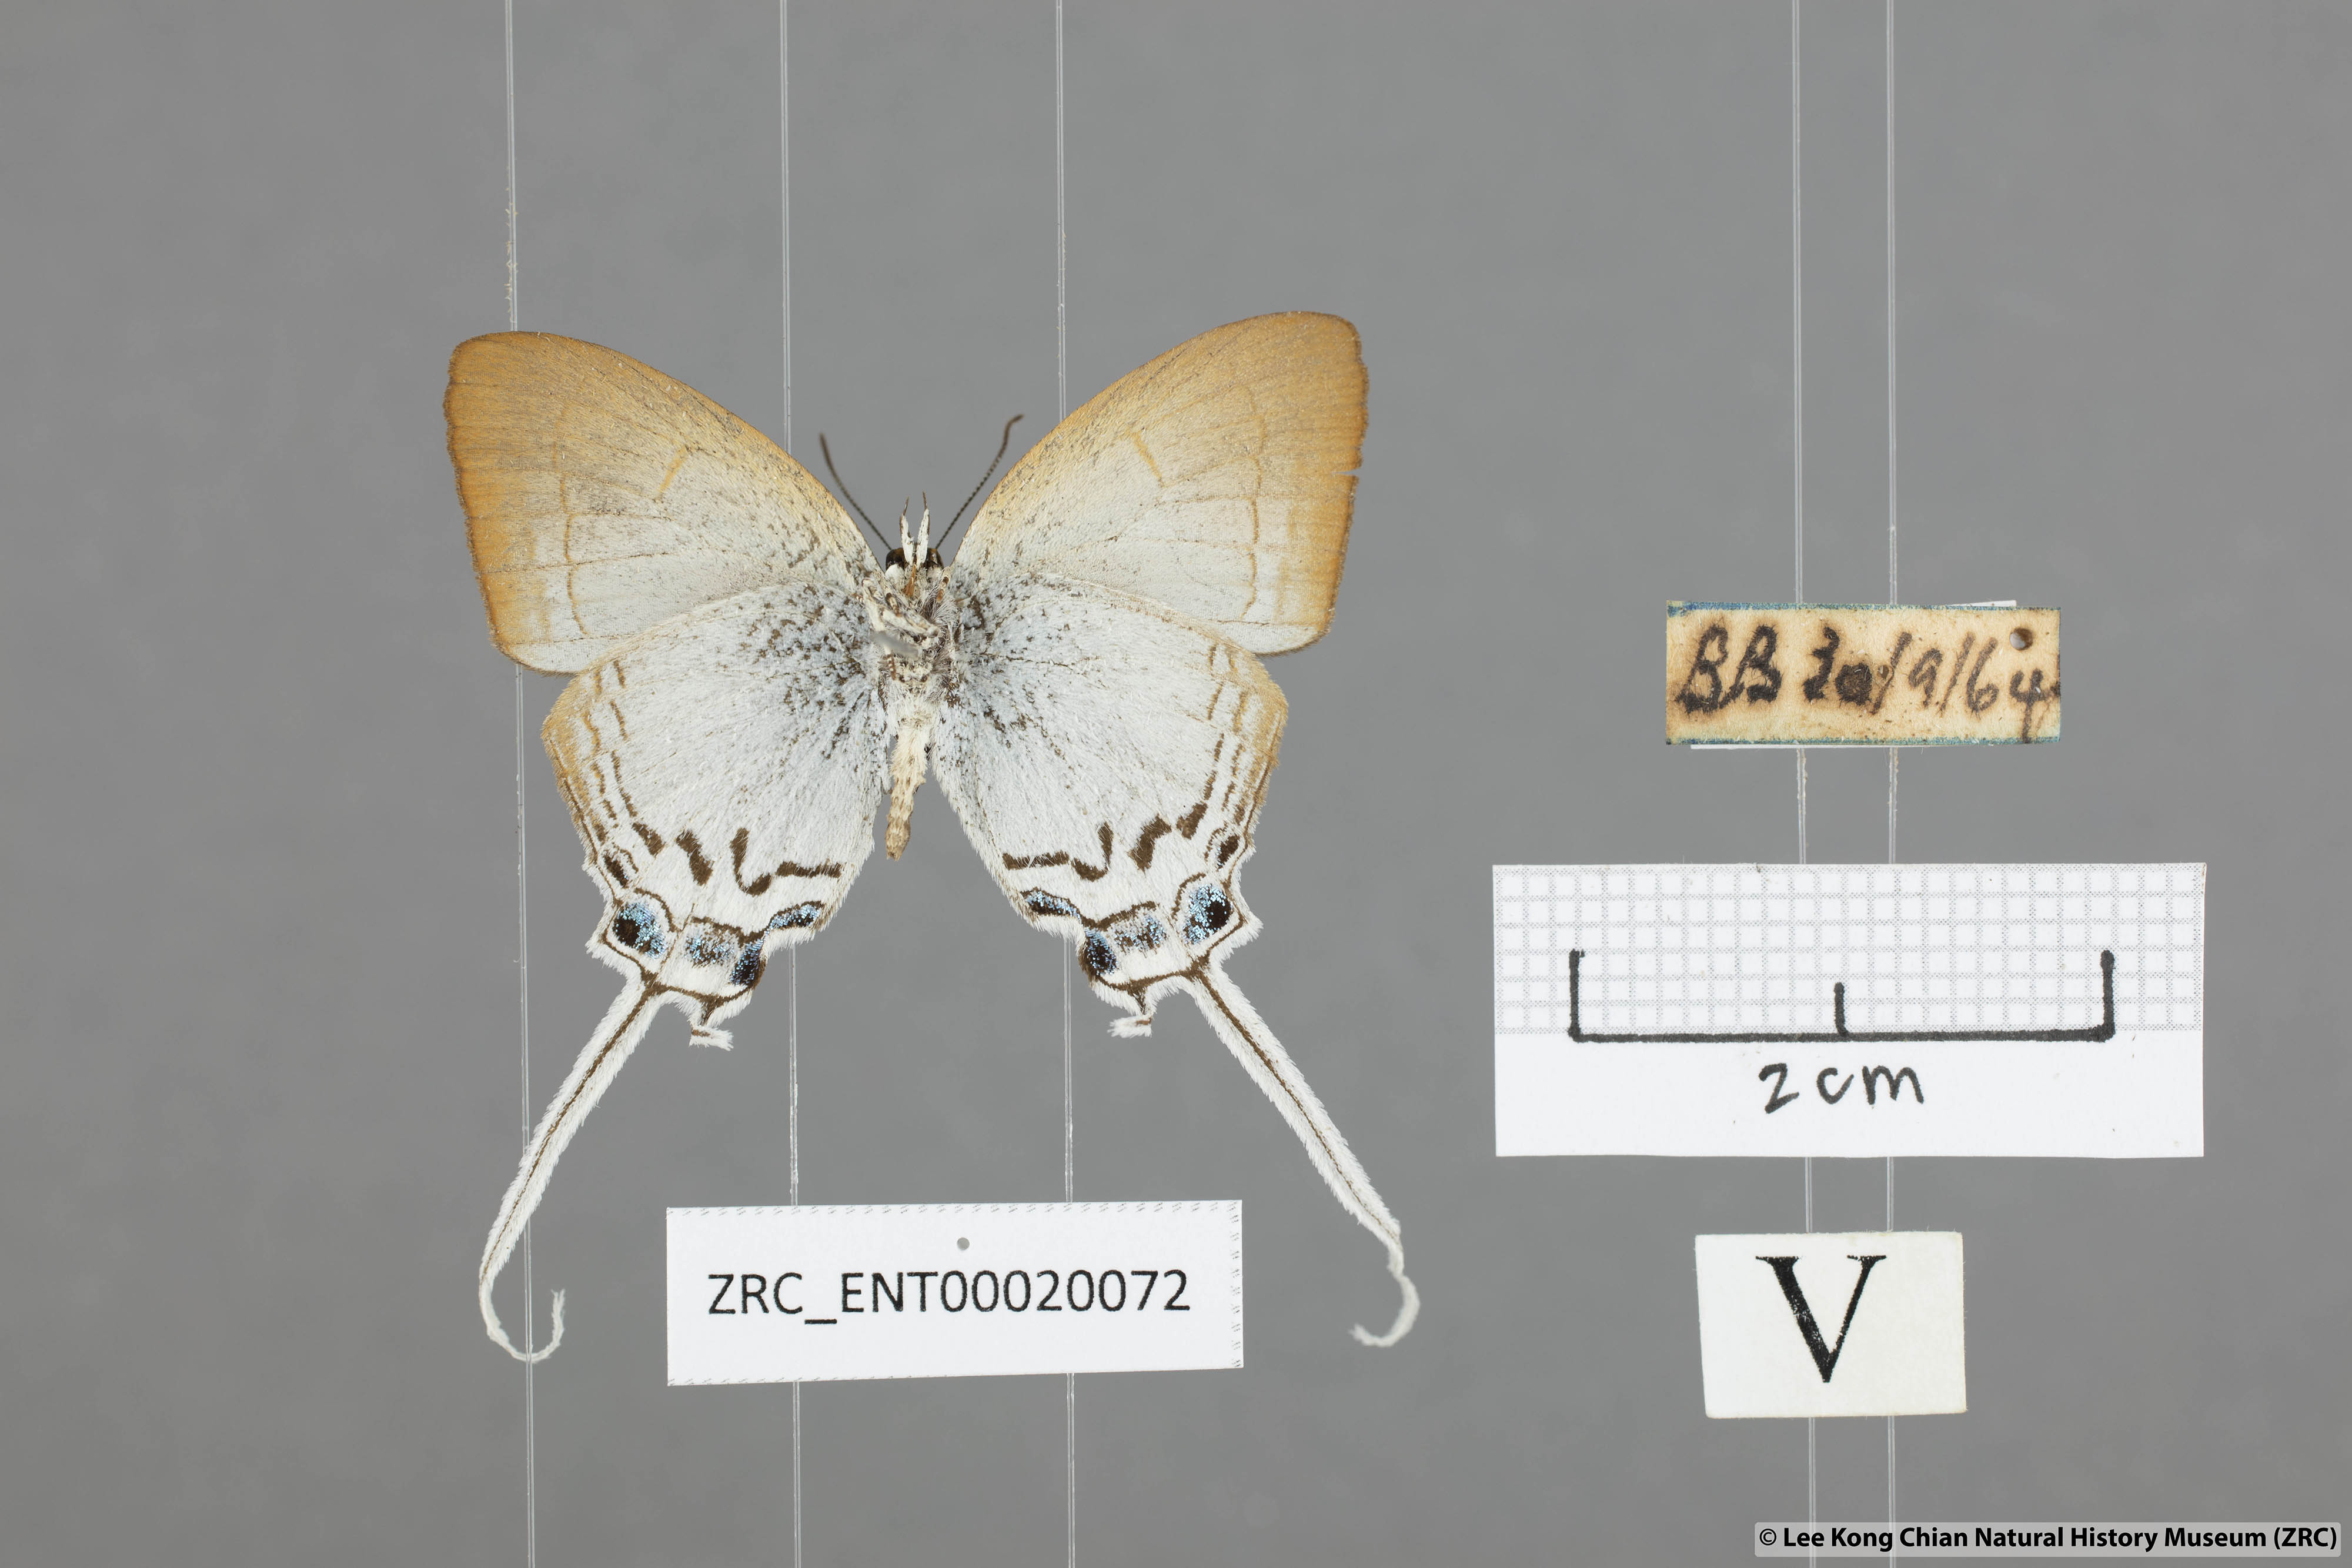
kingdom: Animalia
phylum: Arthropoda
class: Insecta
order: Lepidoptera
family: Lycaenidae
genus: Cheritra
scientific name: Cheritra freja
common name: Common imperial
